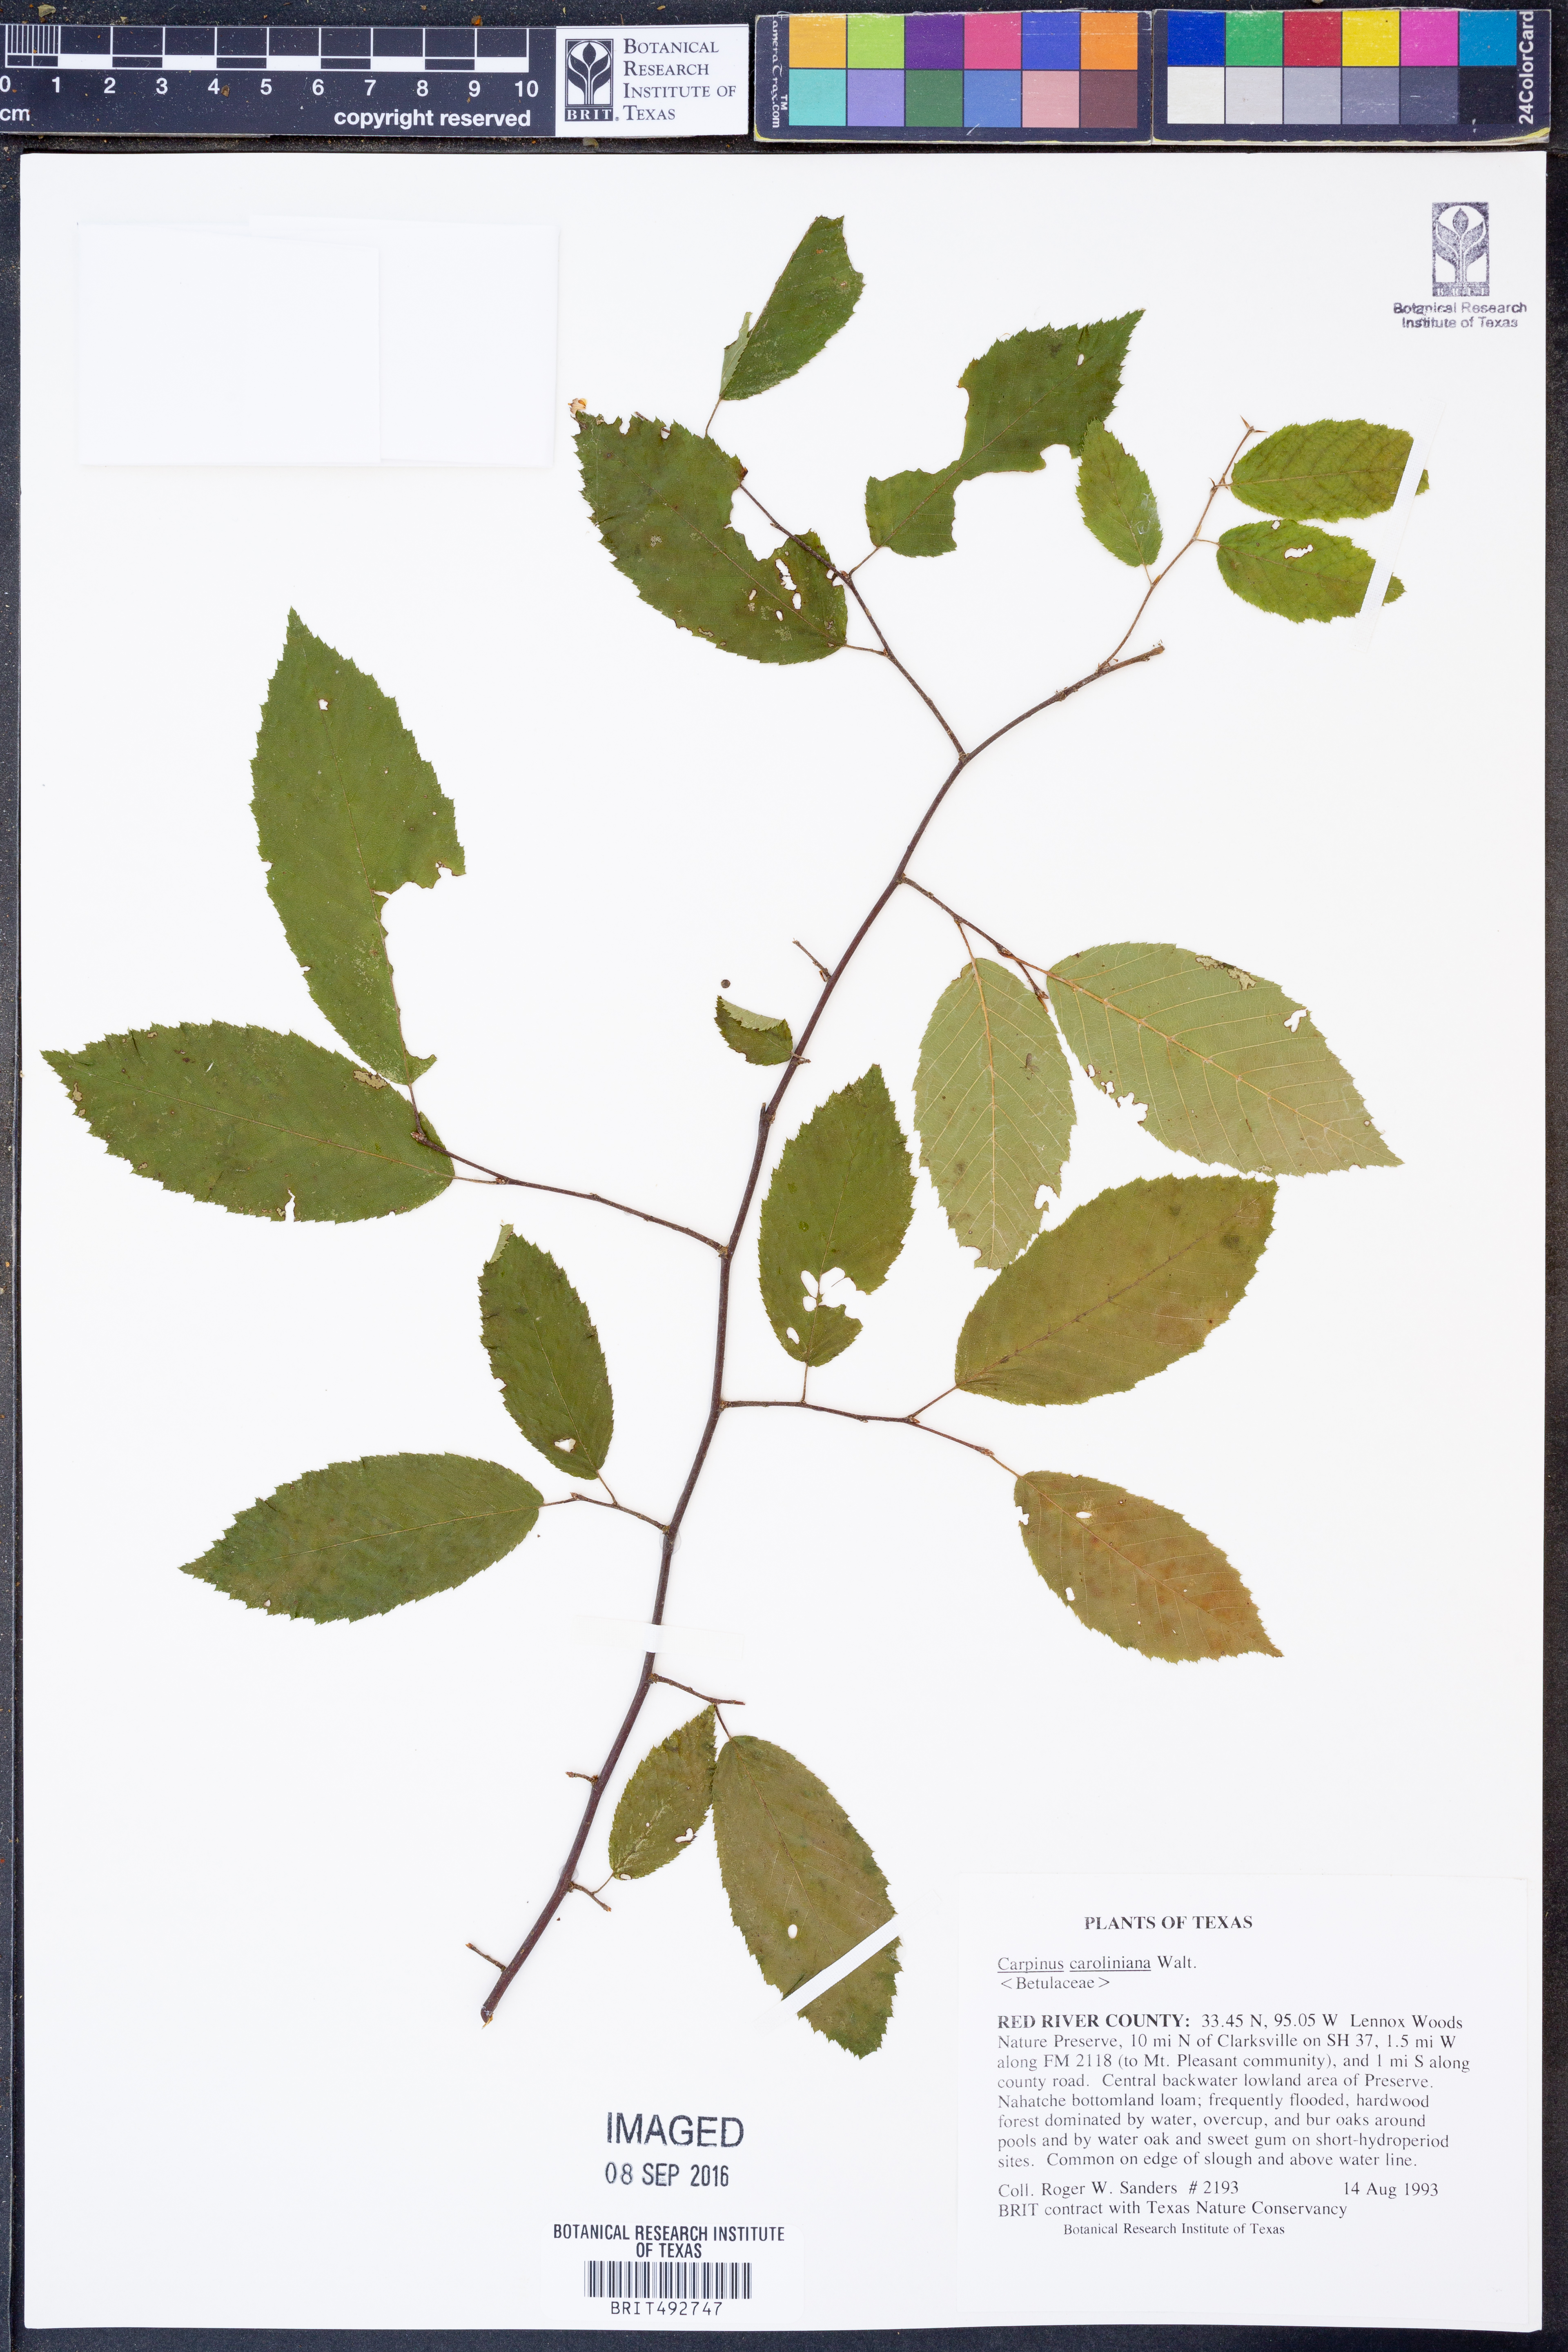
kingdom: Plantae
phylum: Tracheophyta
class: Magnoliopsida
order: Fagales
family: Betulaceae
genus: Carpinus
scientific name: Carpinus caroliniana
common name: American hornbeam
